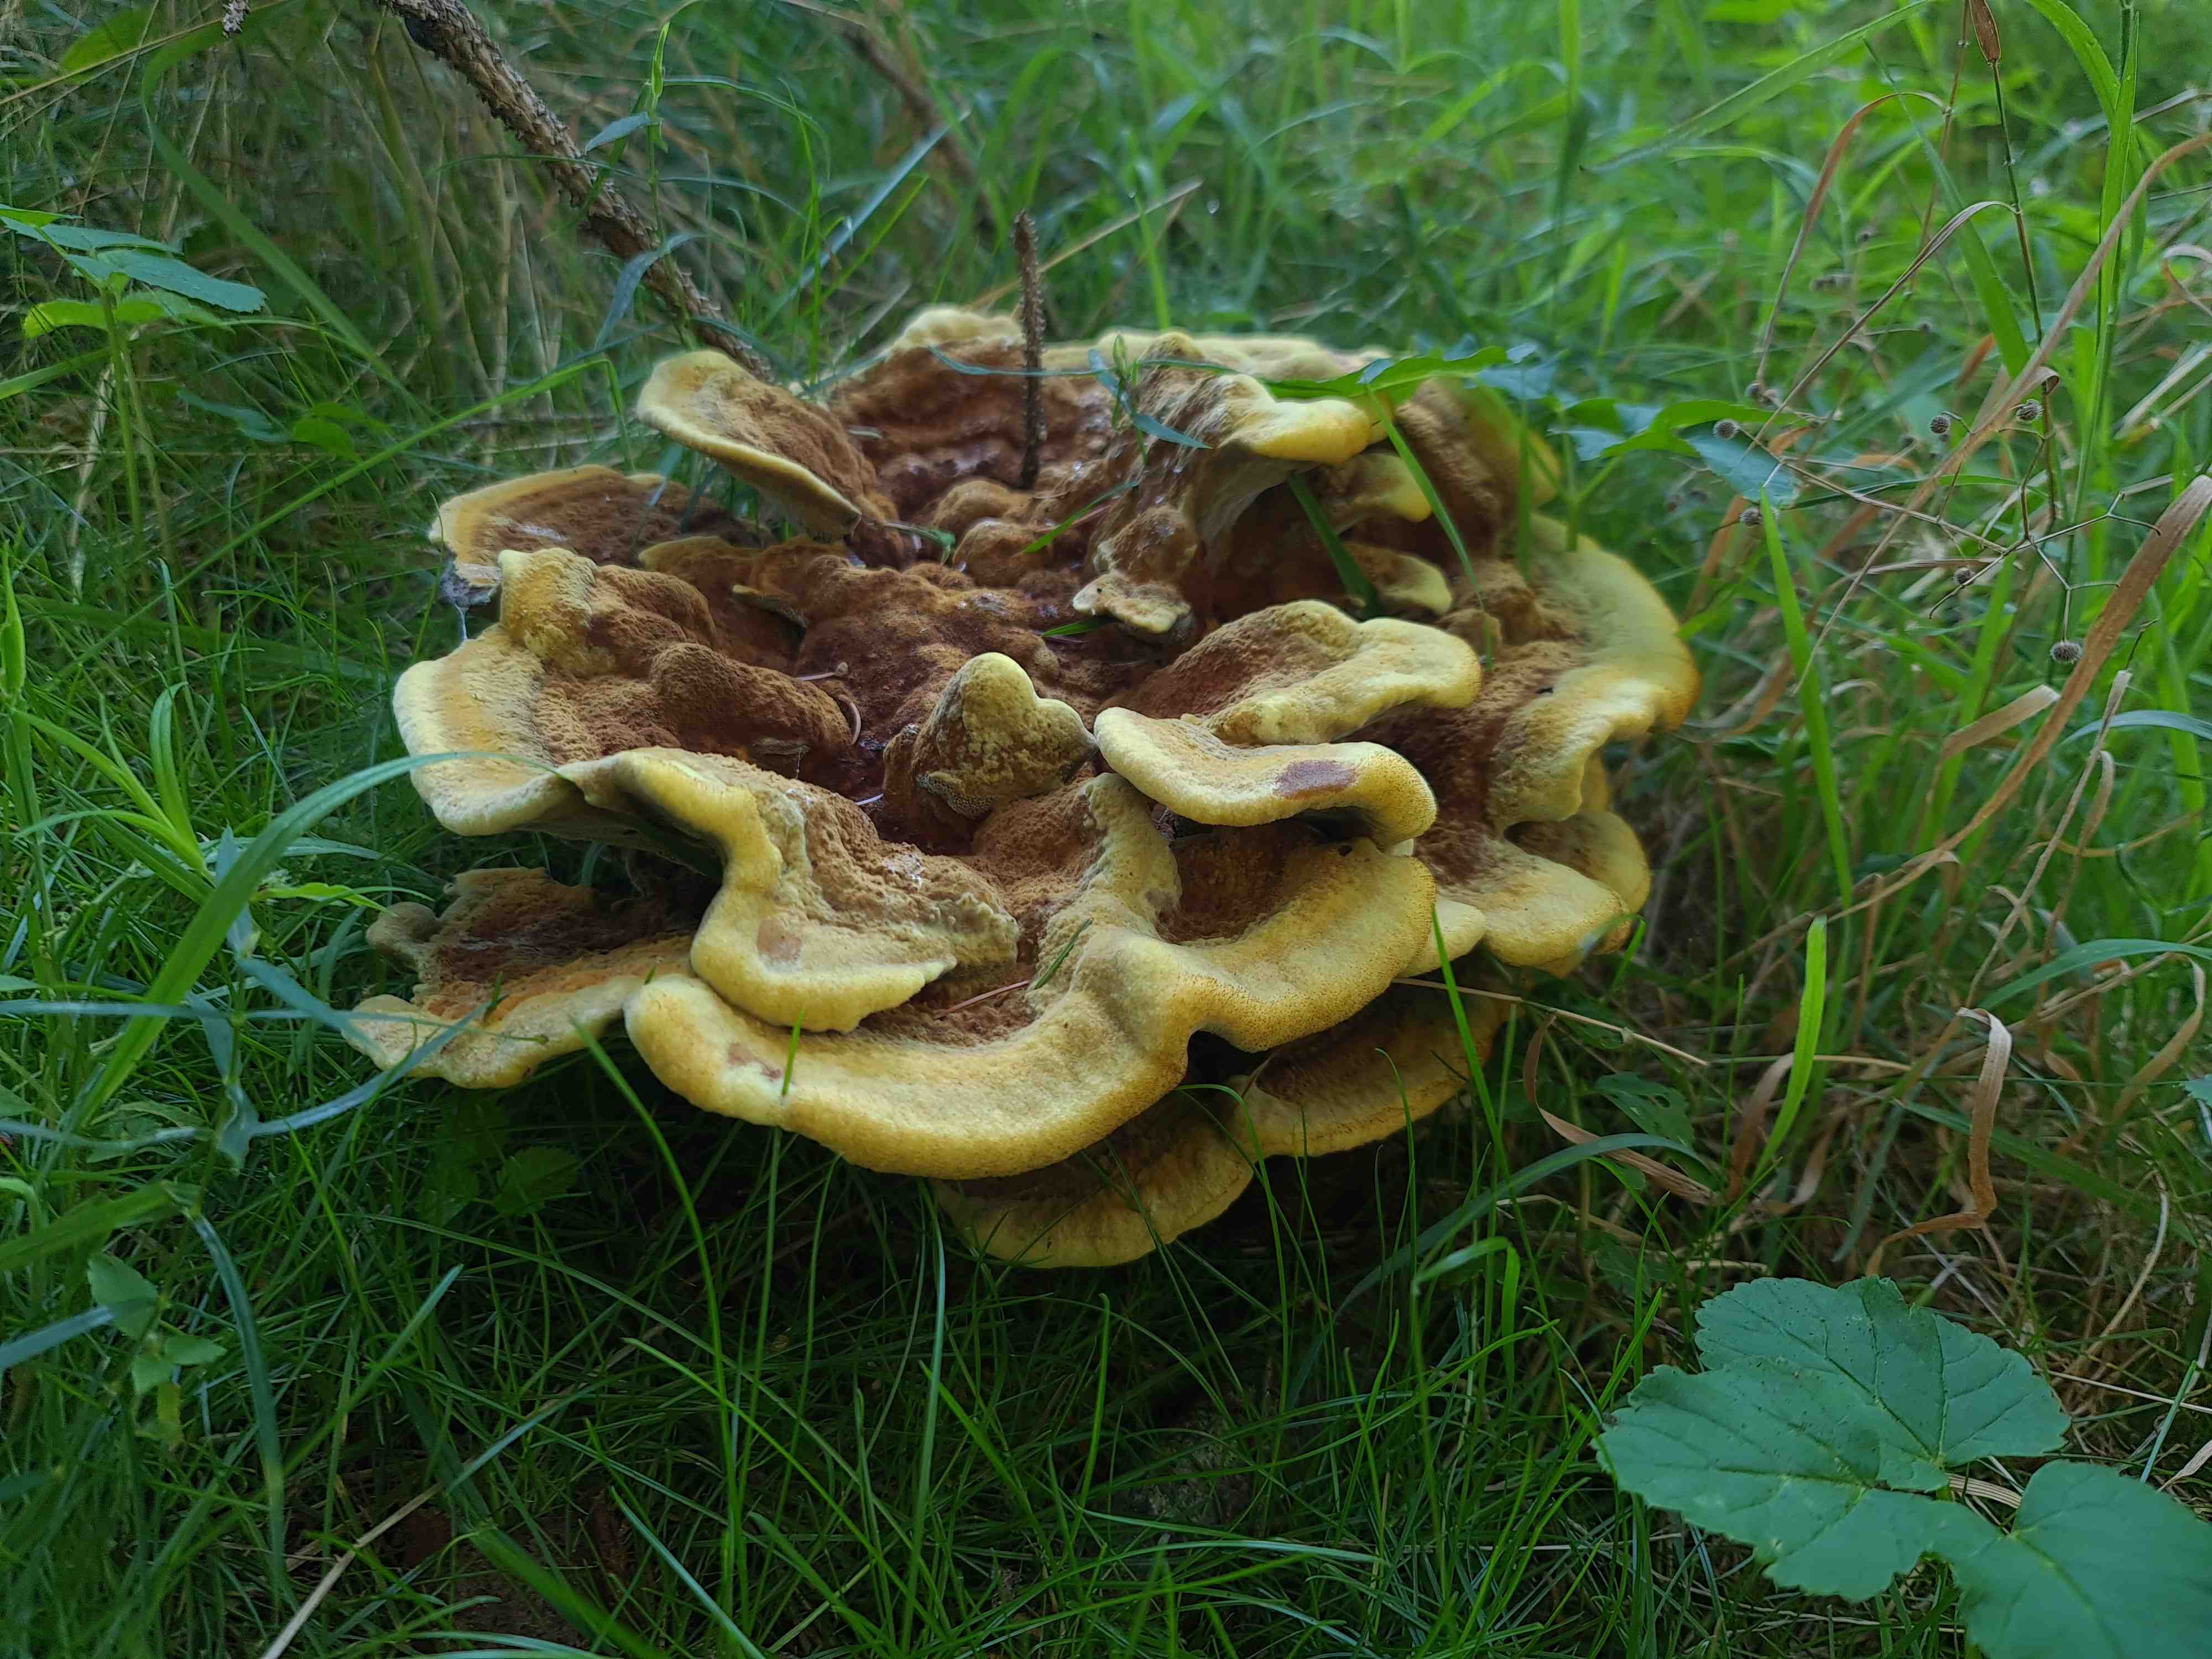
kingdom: Fungi
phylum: Basidiomycota
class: Agaricomycetes
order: Polyporales
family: Laetiporaceae
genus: Phaeolus
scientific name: Phaeolus schweinitzii
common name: brunporesvamp
